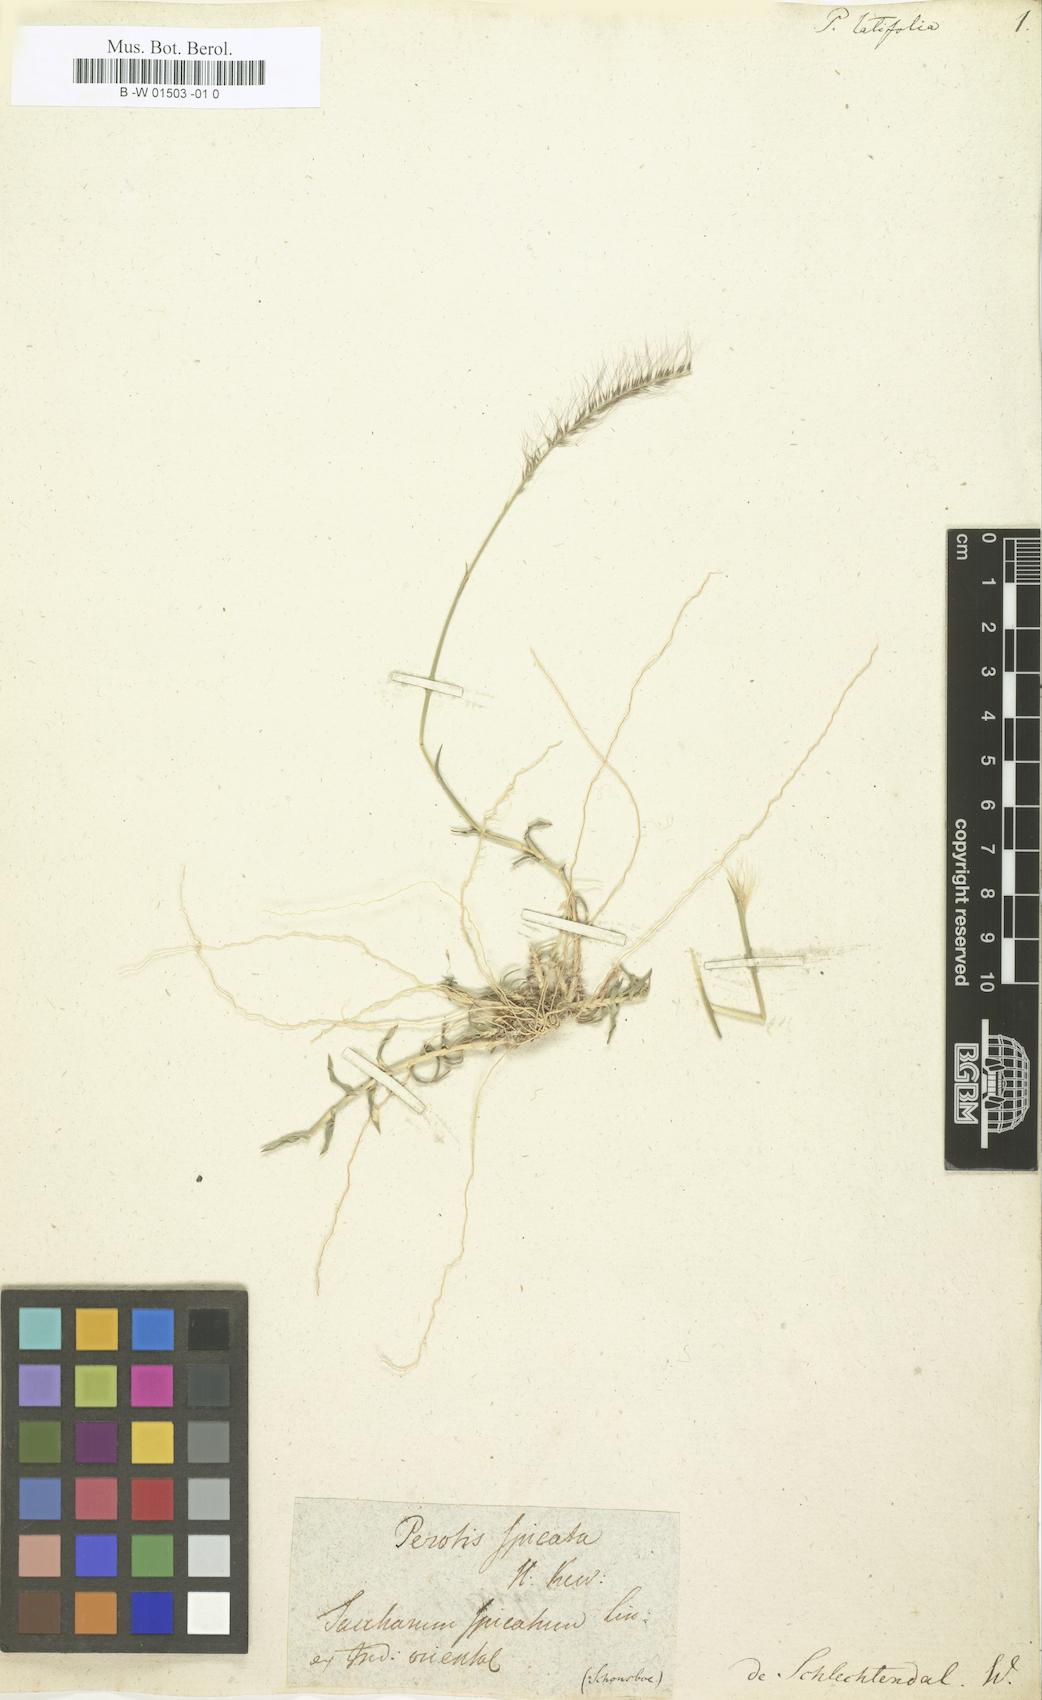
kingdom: Plantae
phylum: Tracheophyta
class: Liliopsida
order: Poales
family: Poaceae
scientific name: Poaceae
